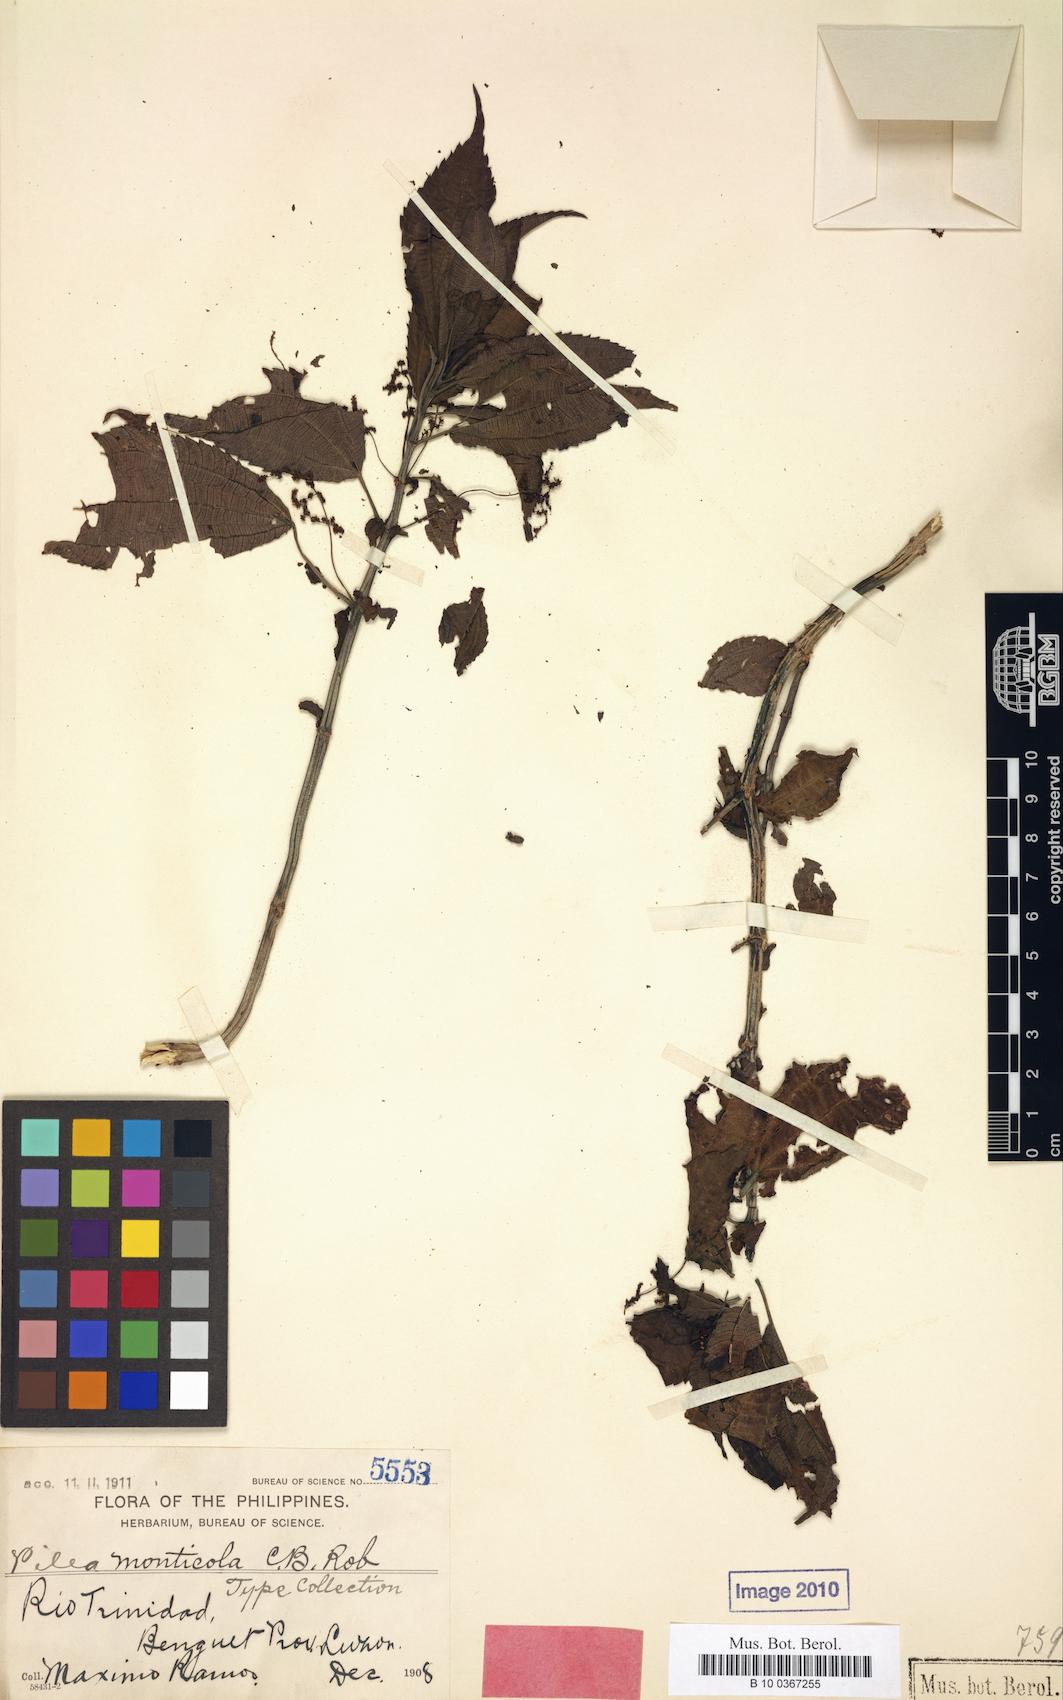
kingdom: Plantae
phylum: Tracheophyta
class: Magnoliopsida
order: Rosales
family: Urticaceae
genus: Pilea
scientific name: Pilea monticola
